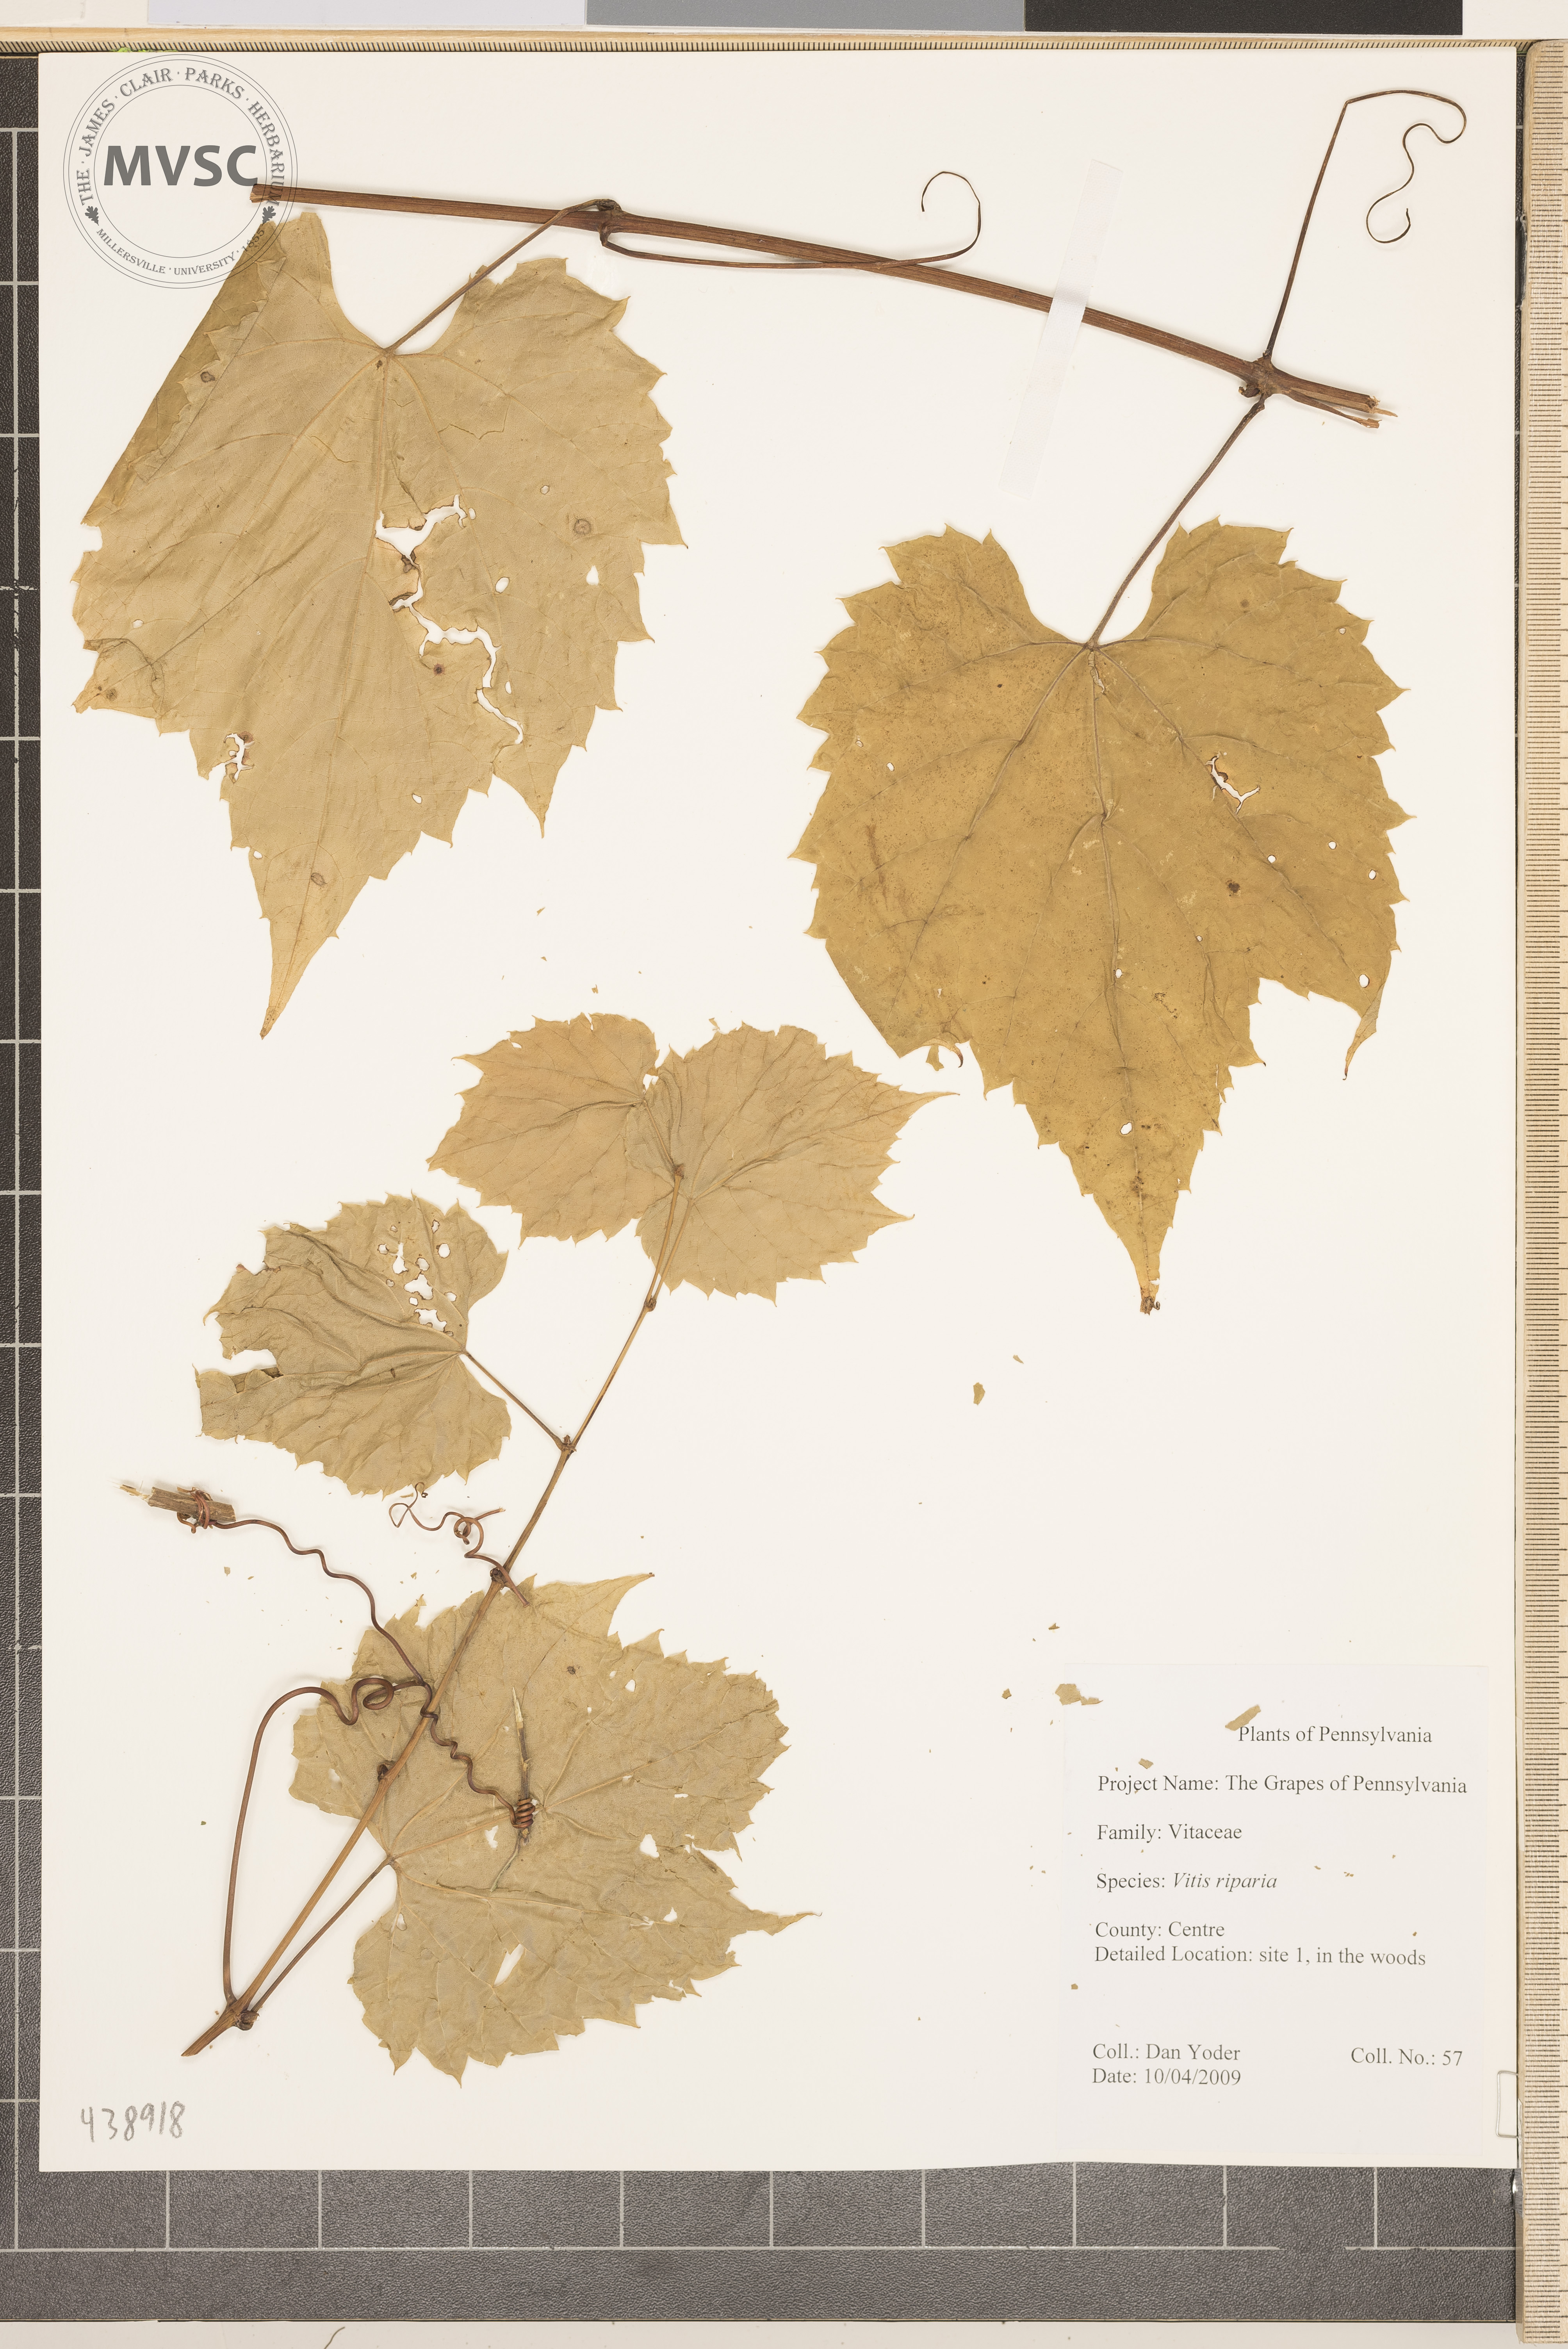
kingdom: Plantae
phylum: Tracheophyta
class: Magnoliopsida
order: Vitales
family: Vitaceae
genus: Vitis
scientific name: Vitis riparia
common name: Frost grape
